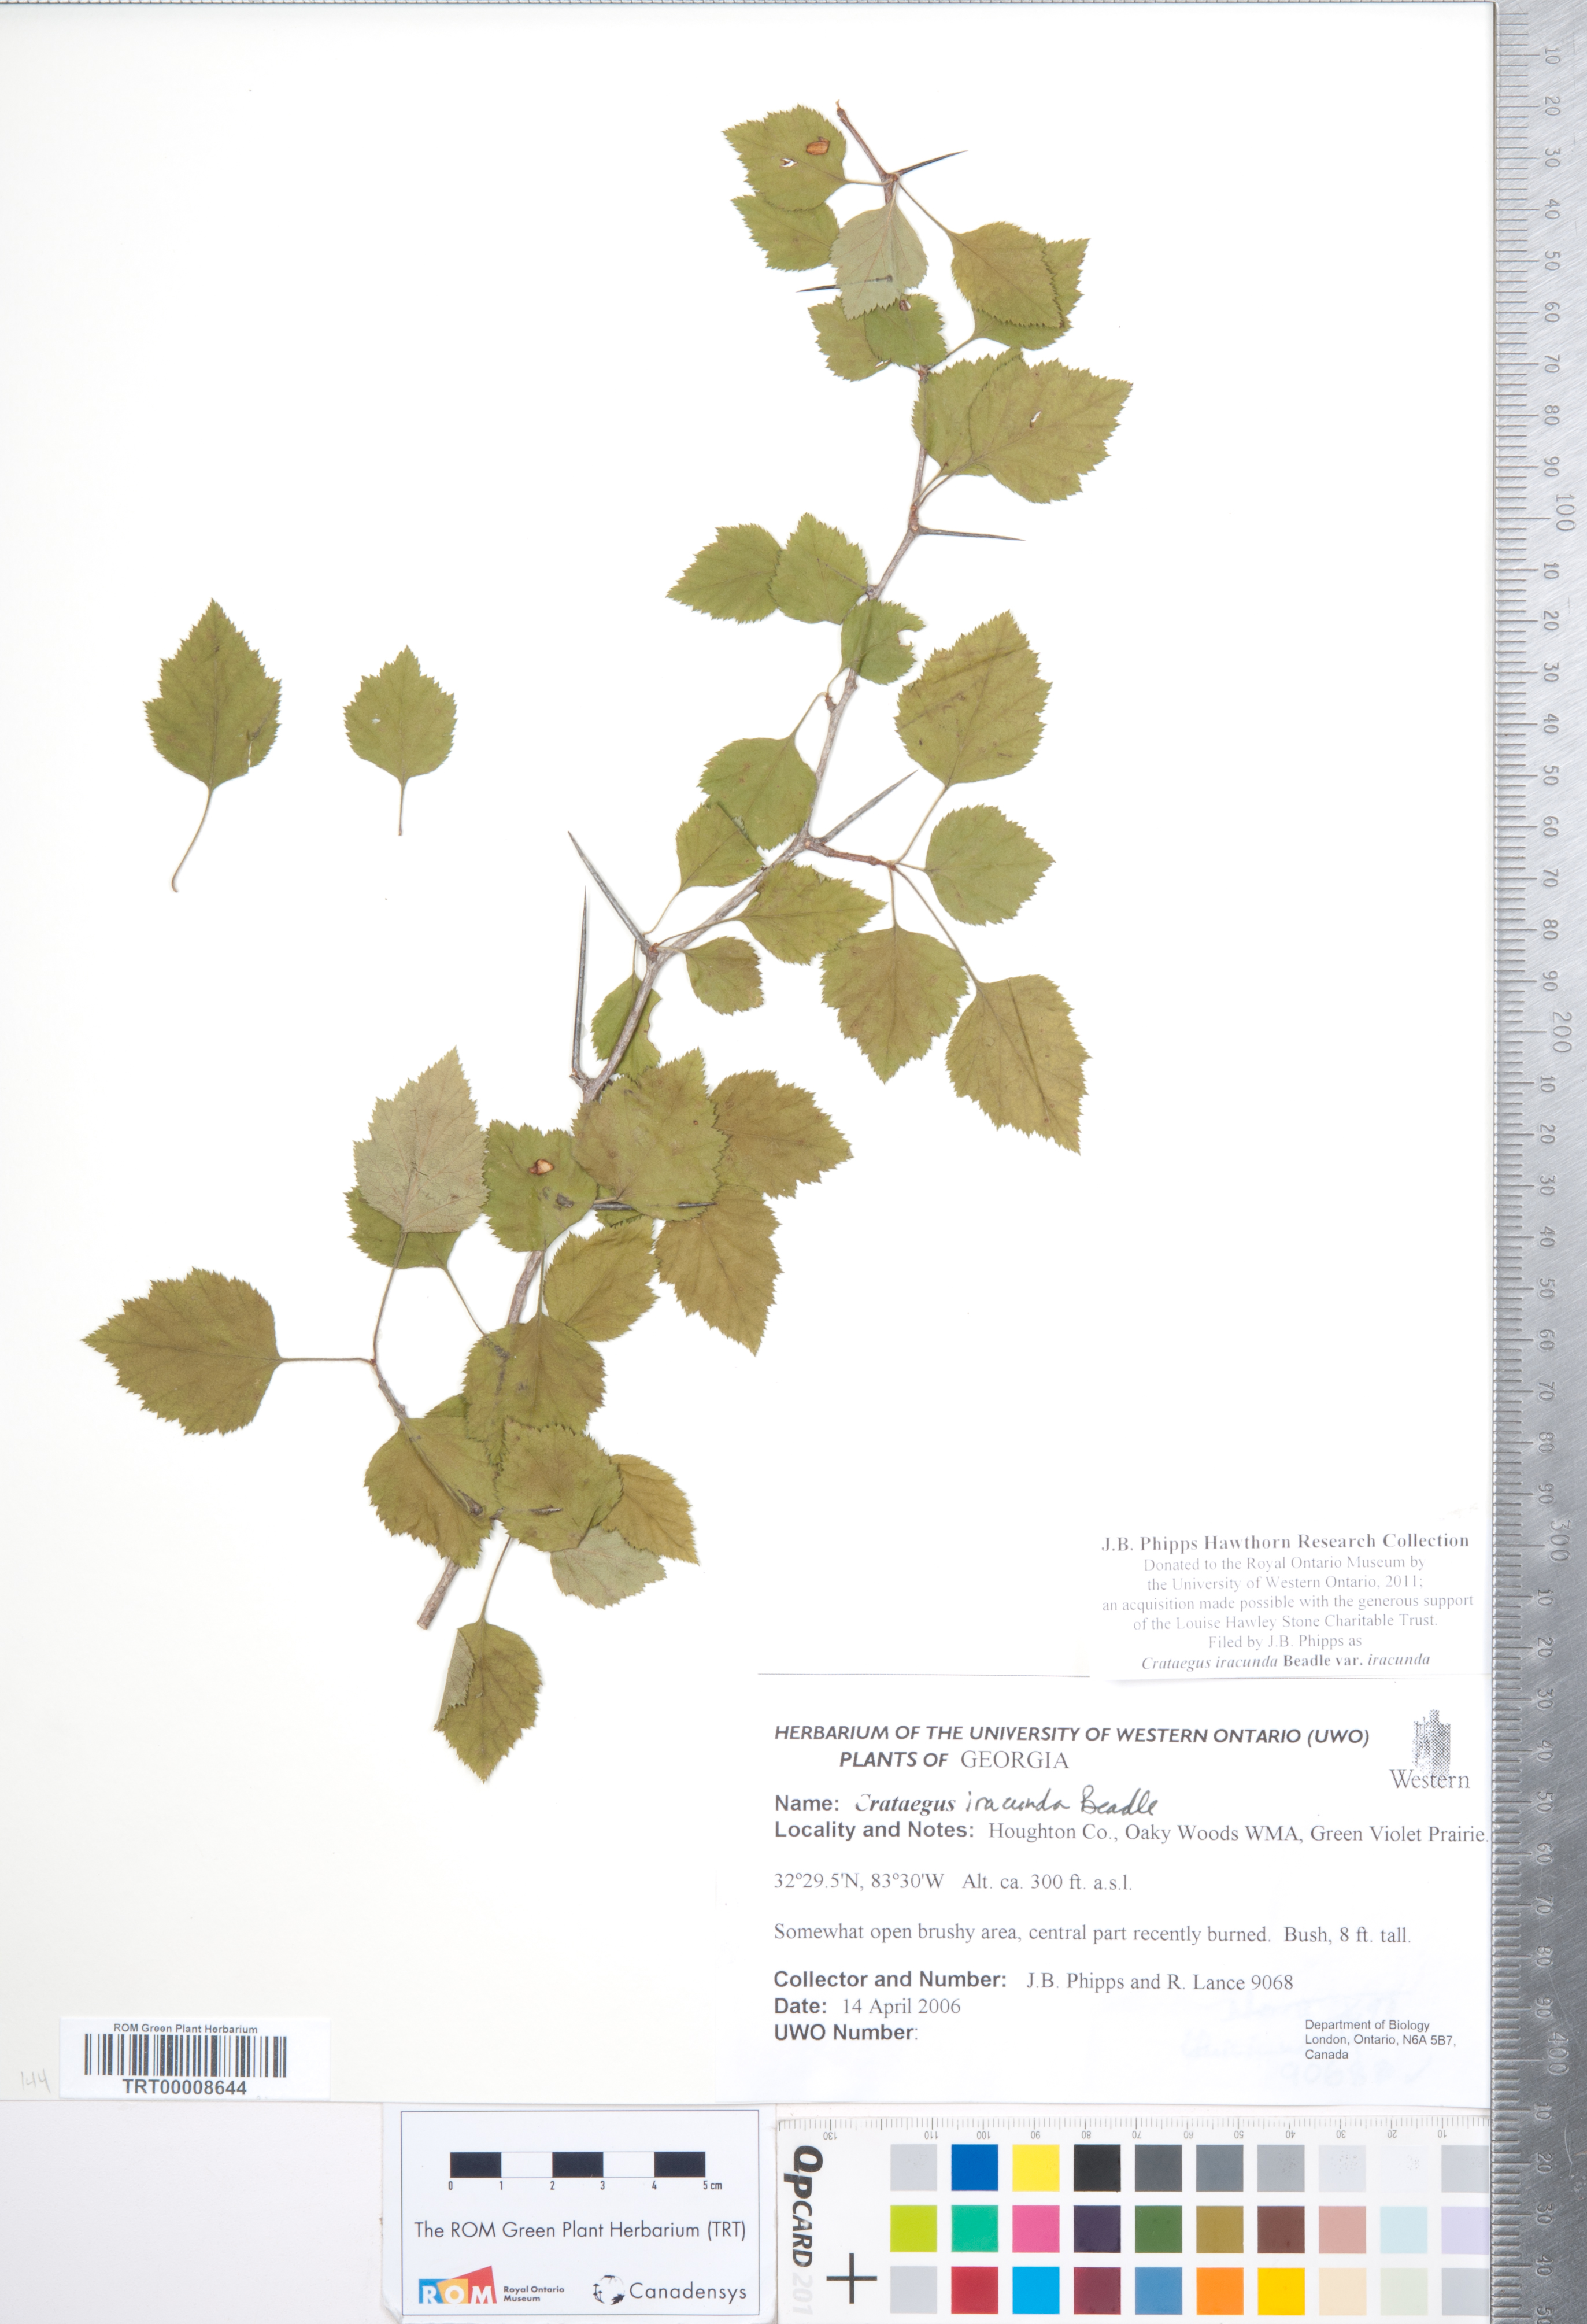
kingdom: Plantae
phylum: Tracheophyta
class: Magnoliopsida
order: Rosales
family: Rosaceae
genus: Crataegus
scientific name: Crataegus iracunda
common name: Stolon-bearing hawthorn
